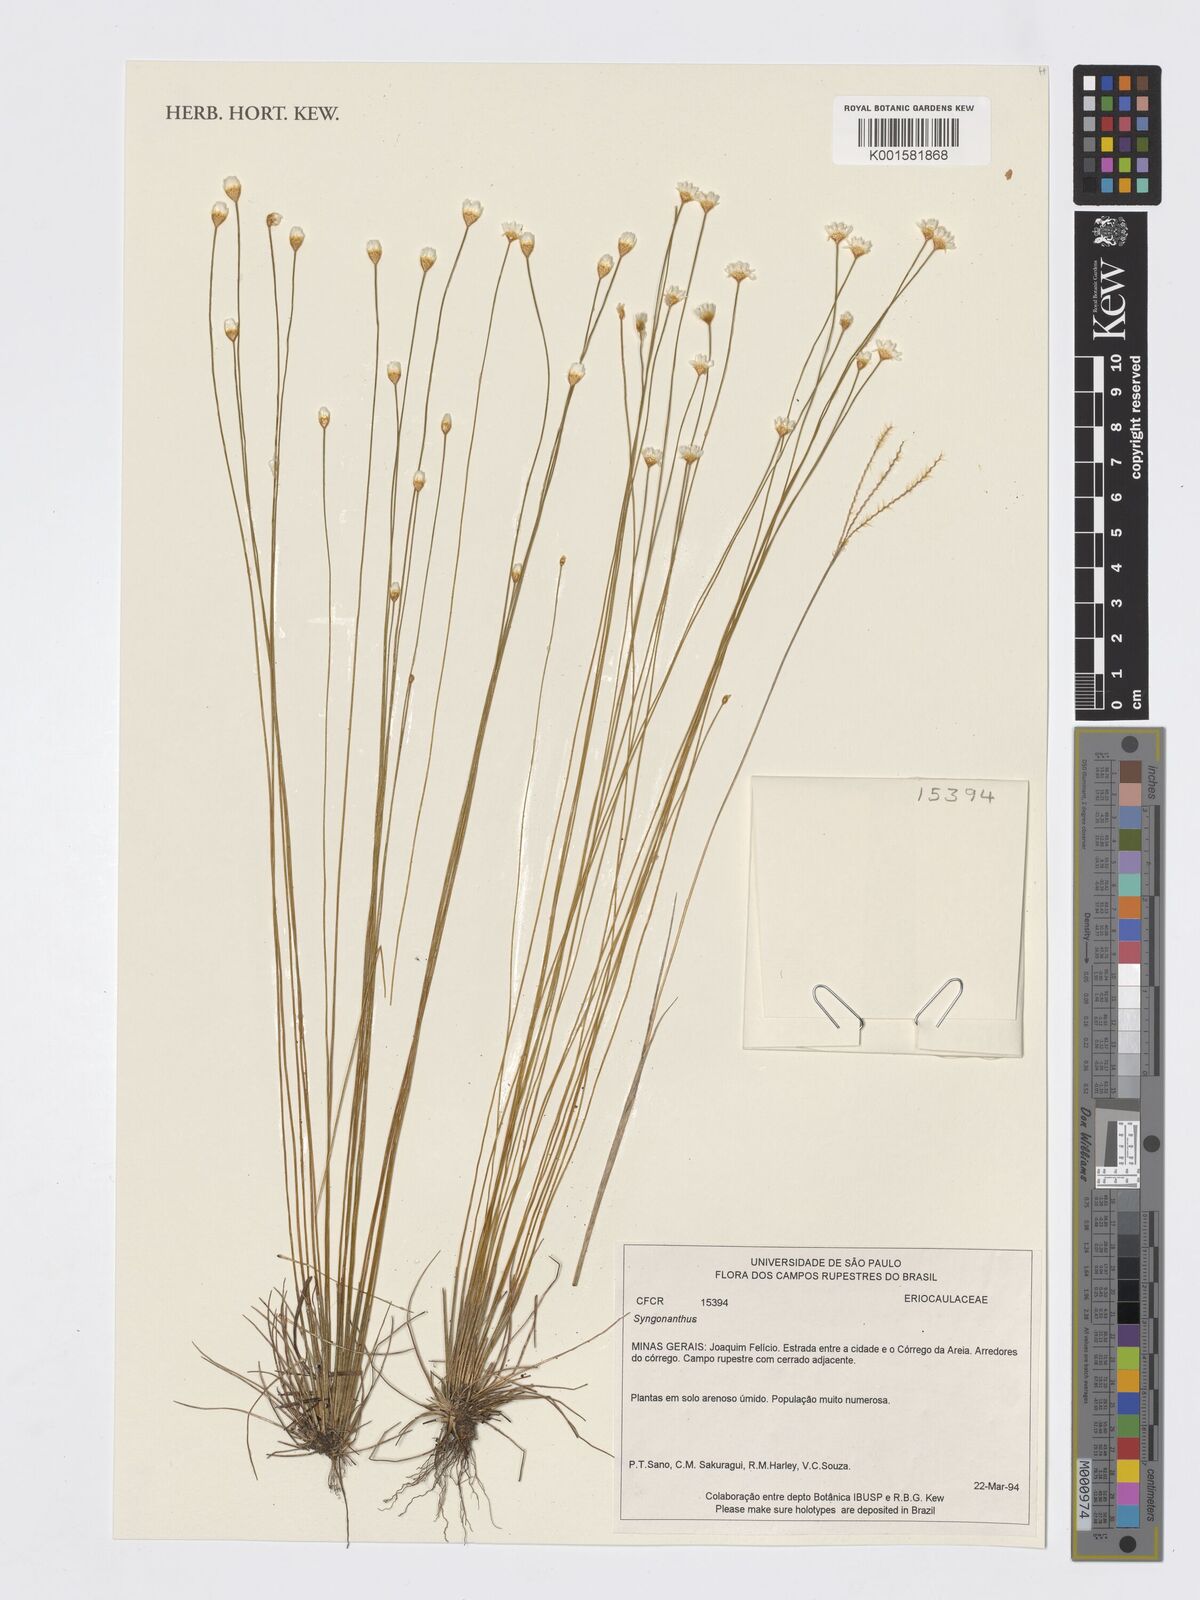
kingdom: Plantae
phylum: Tracheophyta
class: Liliopsida
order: Poales
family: Eriocaulaceae
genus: Syngonanthus
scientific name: Syngonanthus
